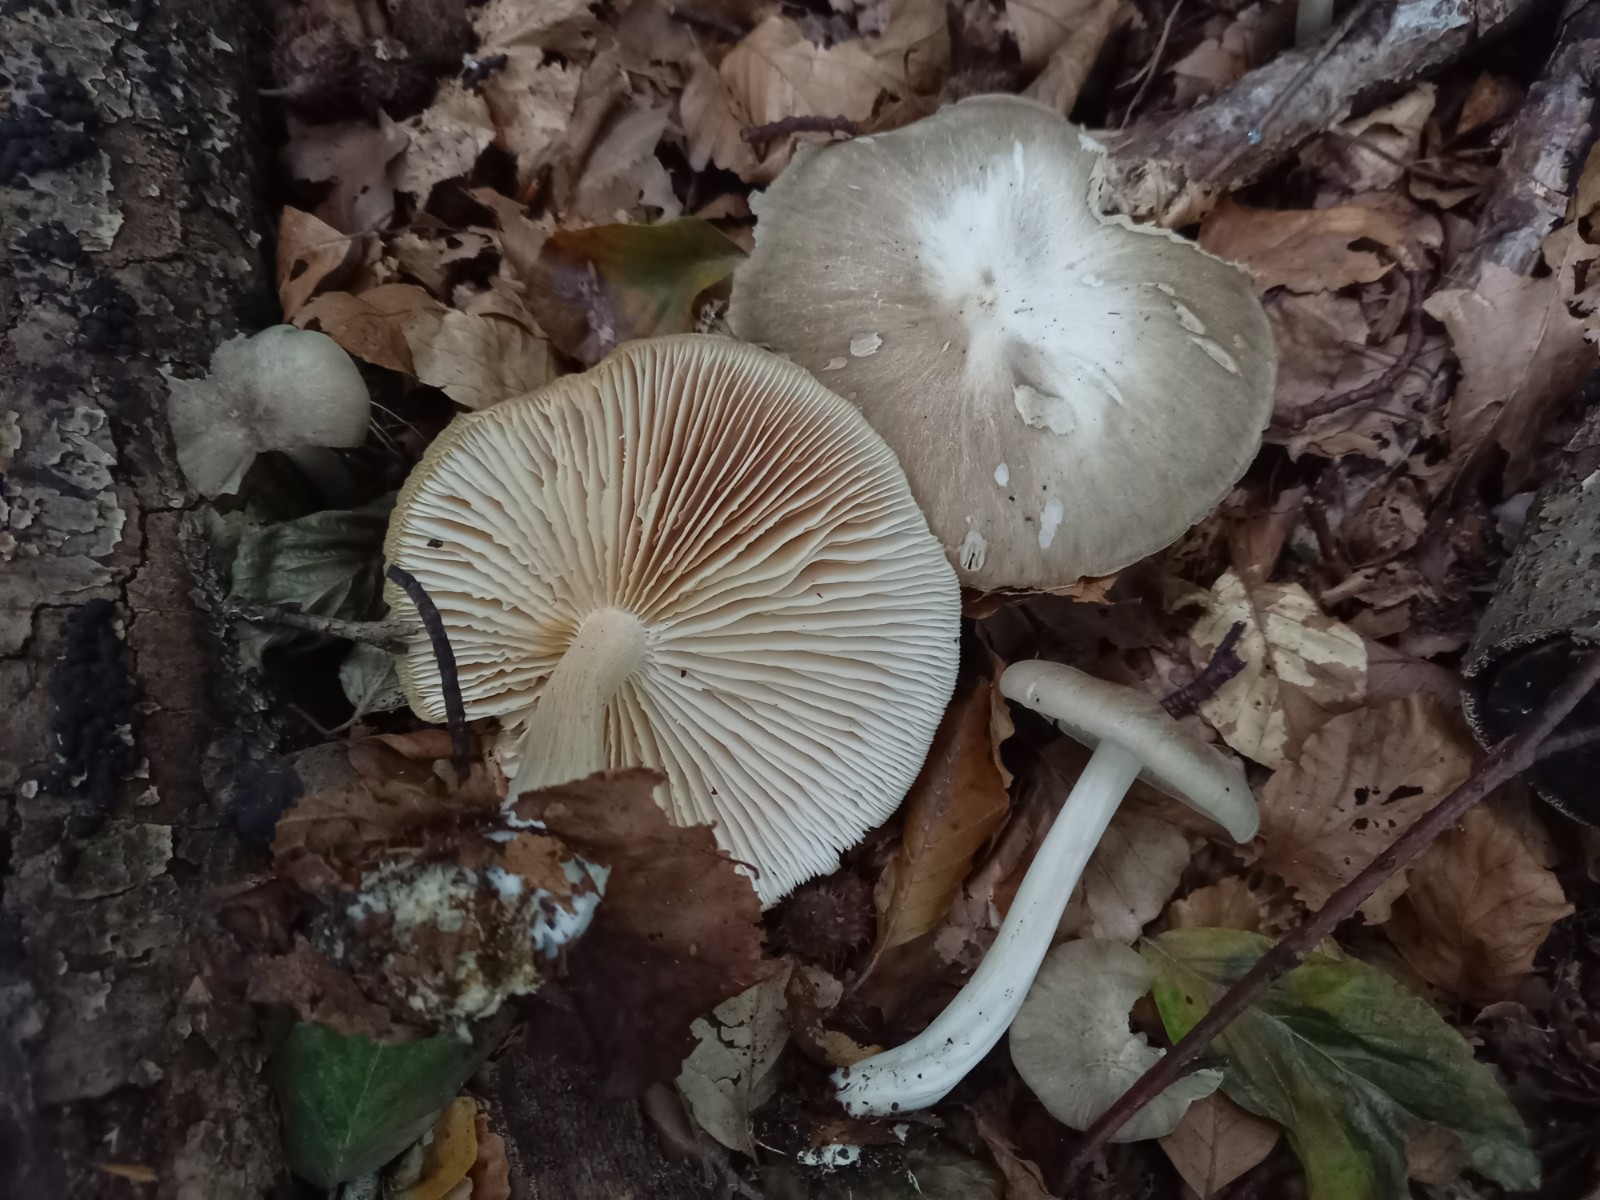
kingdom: Fungi
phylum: Basidiomycota
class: Agaricomycetes
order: Agaricales
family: Tricholomataceae
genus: Megacollybia
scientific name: Megacollybia platyphylla
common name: bredbladet væbnerhat
